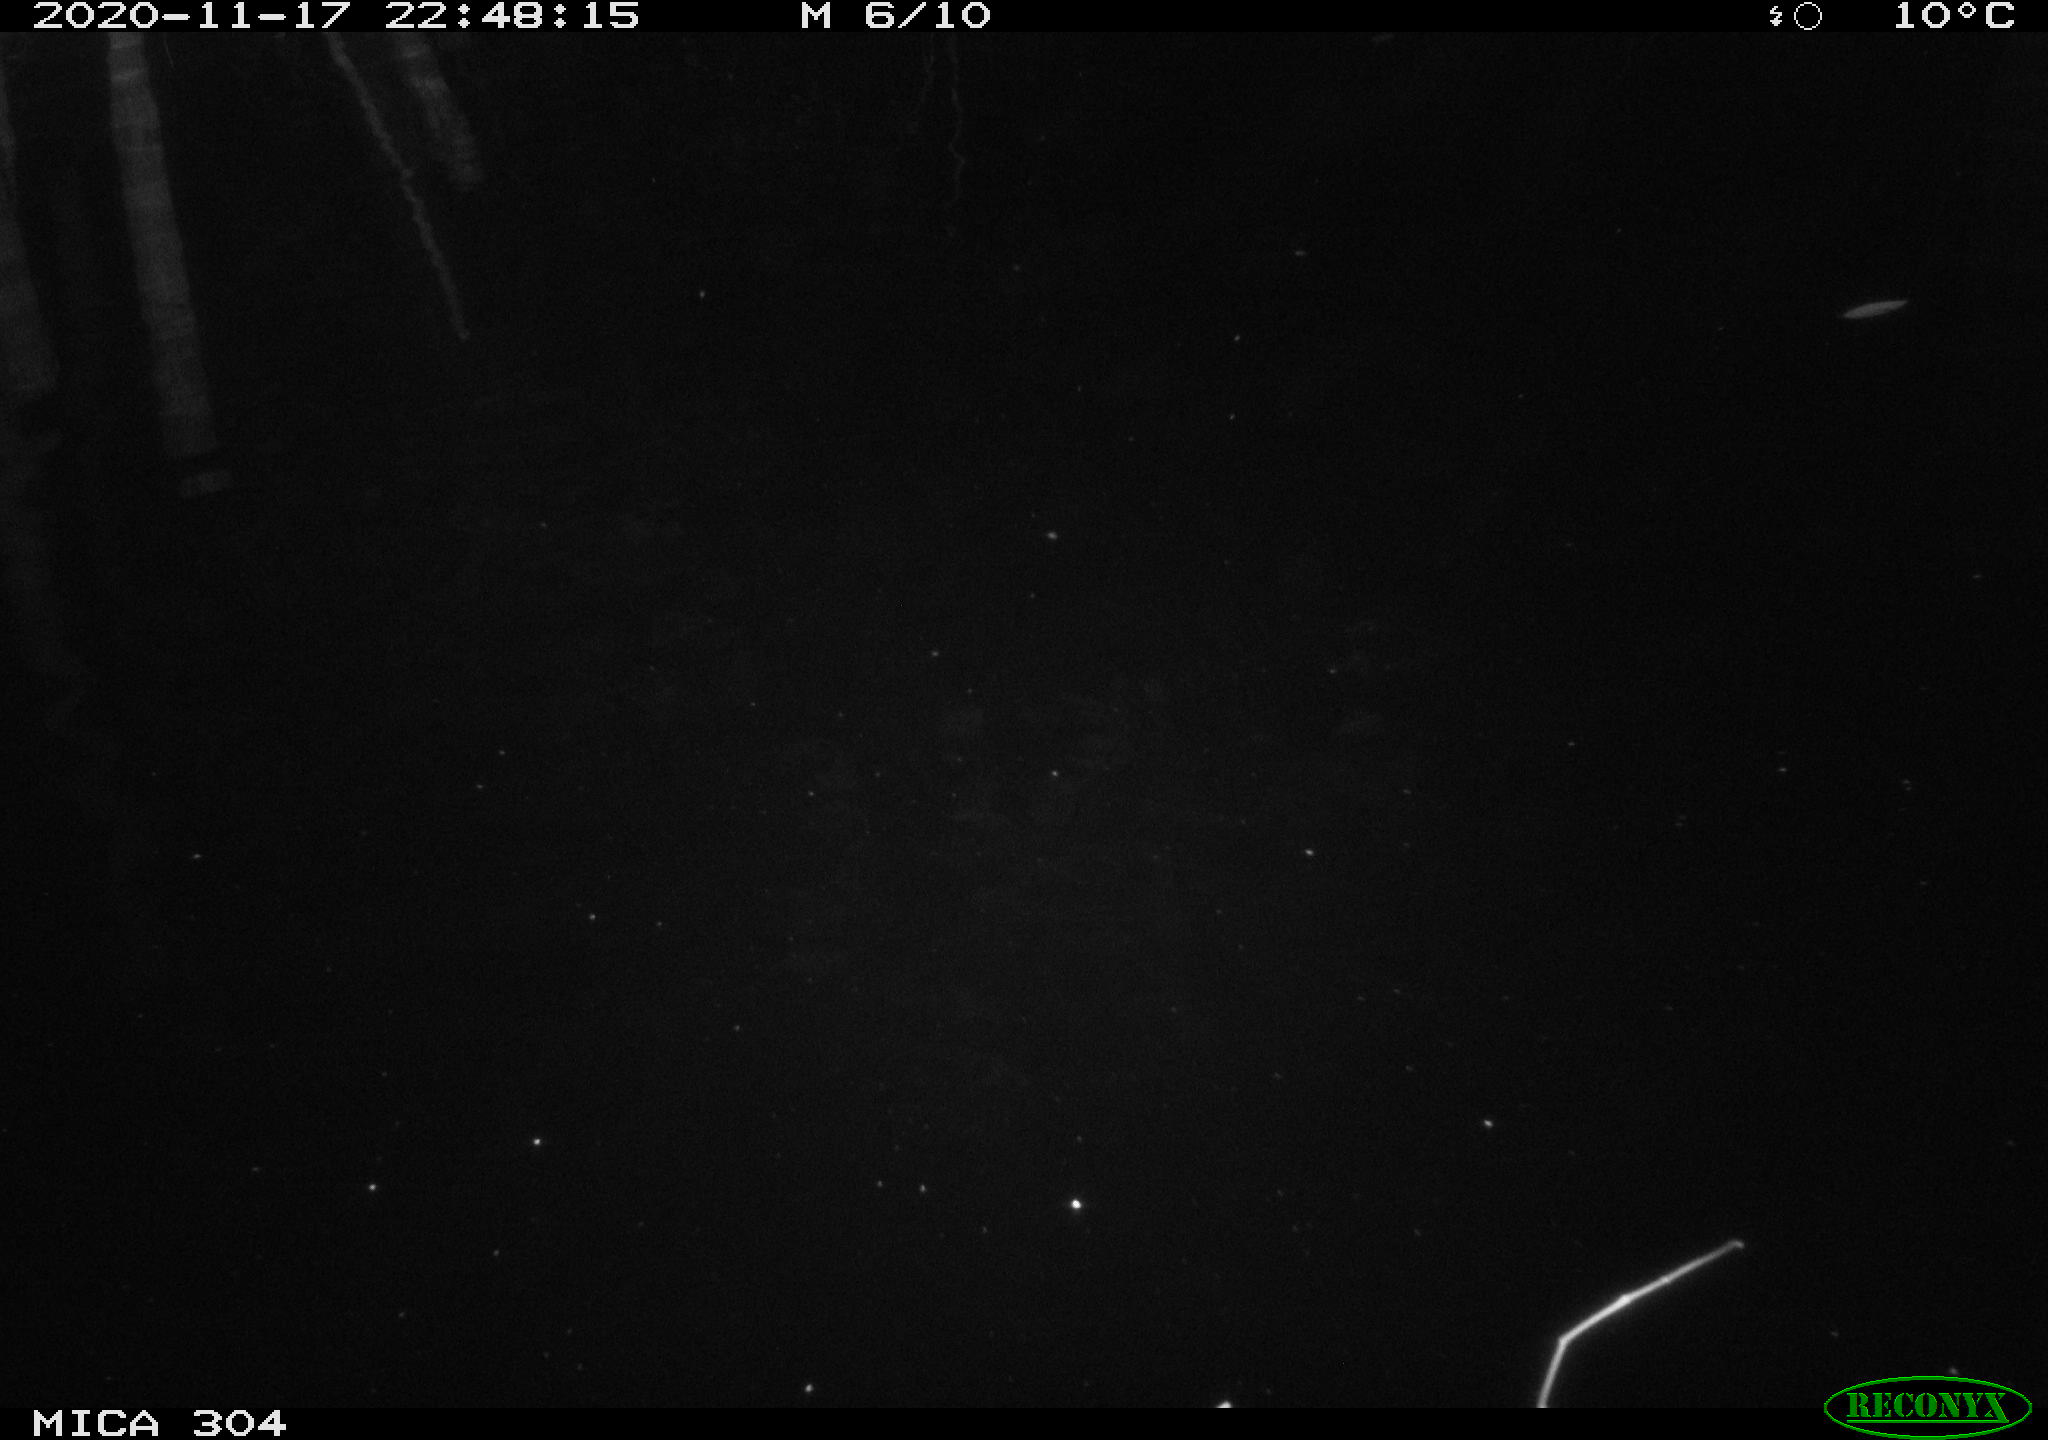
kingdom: Animalia
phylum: Chordata
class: Mammalia
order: Rodentia
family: Muridae
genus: Rattus
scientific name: Rattus norvegicus
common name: Brown rat
